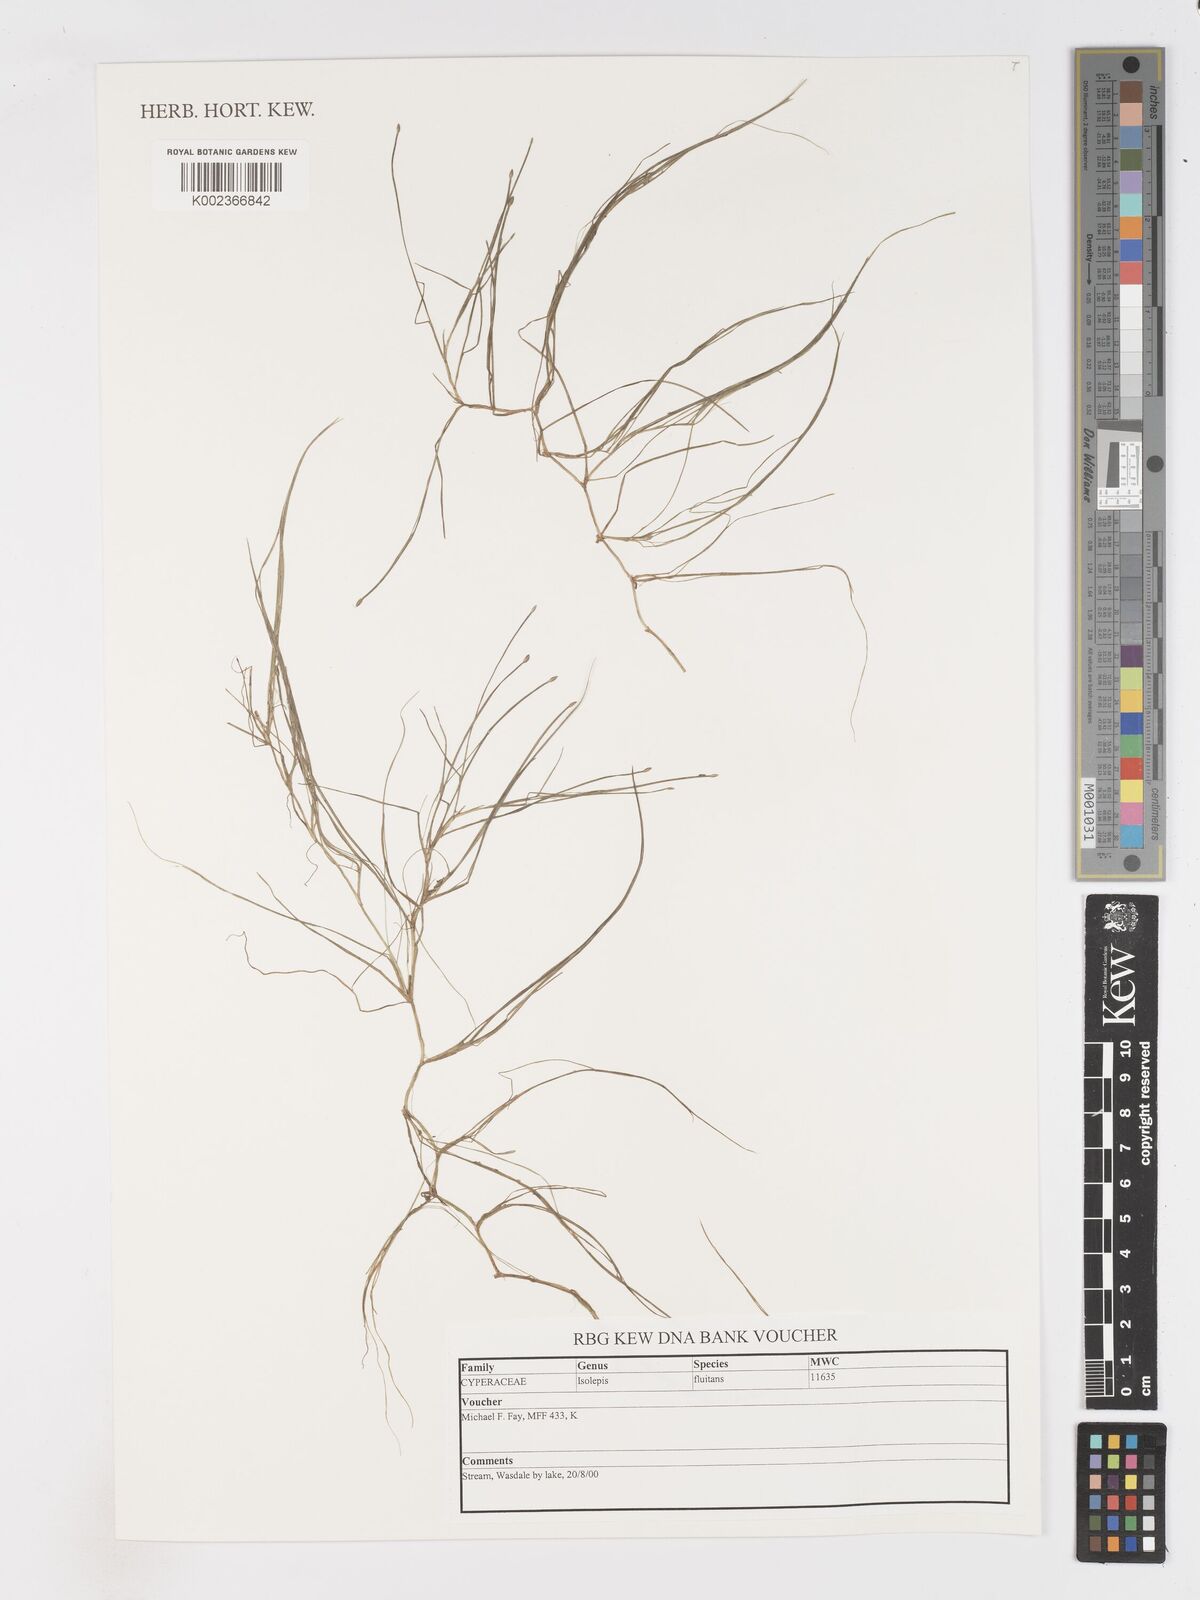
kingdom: Plantae
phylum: Tracheophyta
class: Liliopsida
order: Poales
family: Cyperaceae
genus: Isolepis
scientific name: Isolepis fluitans
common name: Floating club-rush
